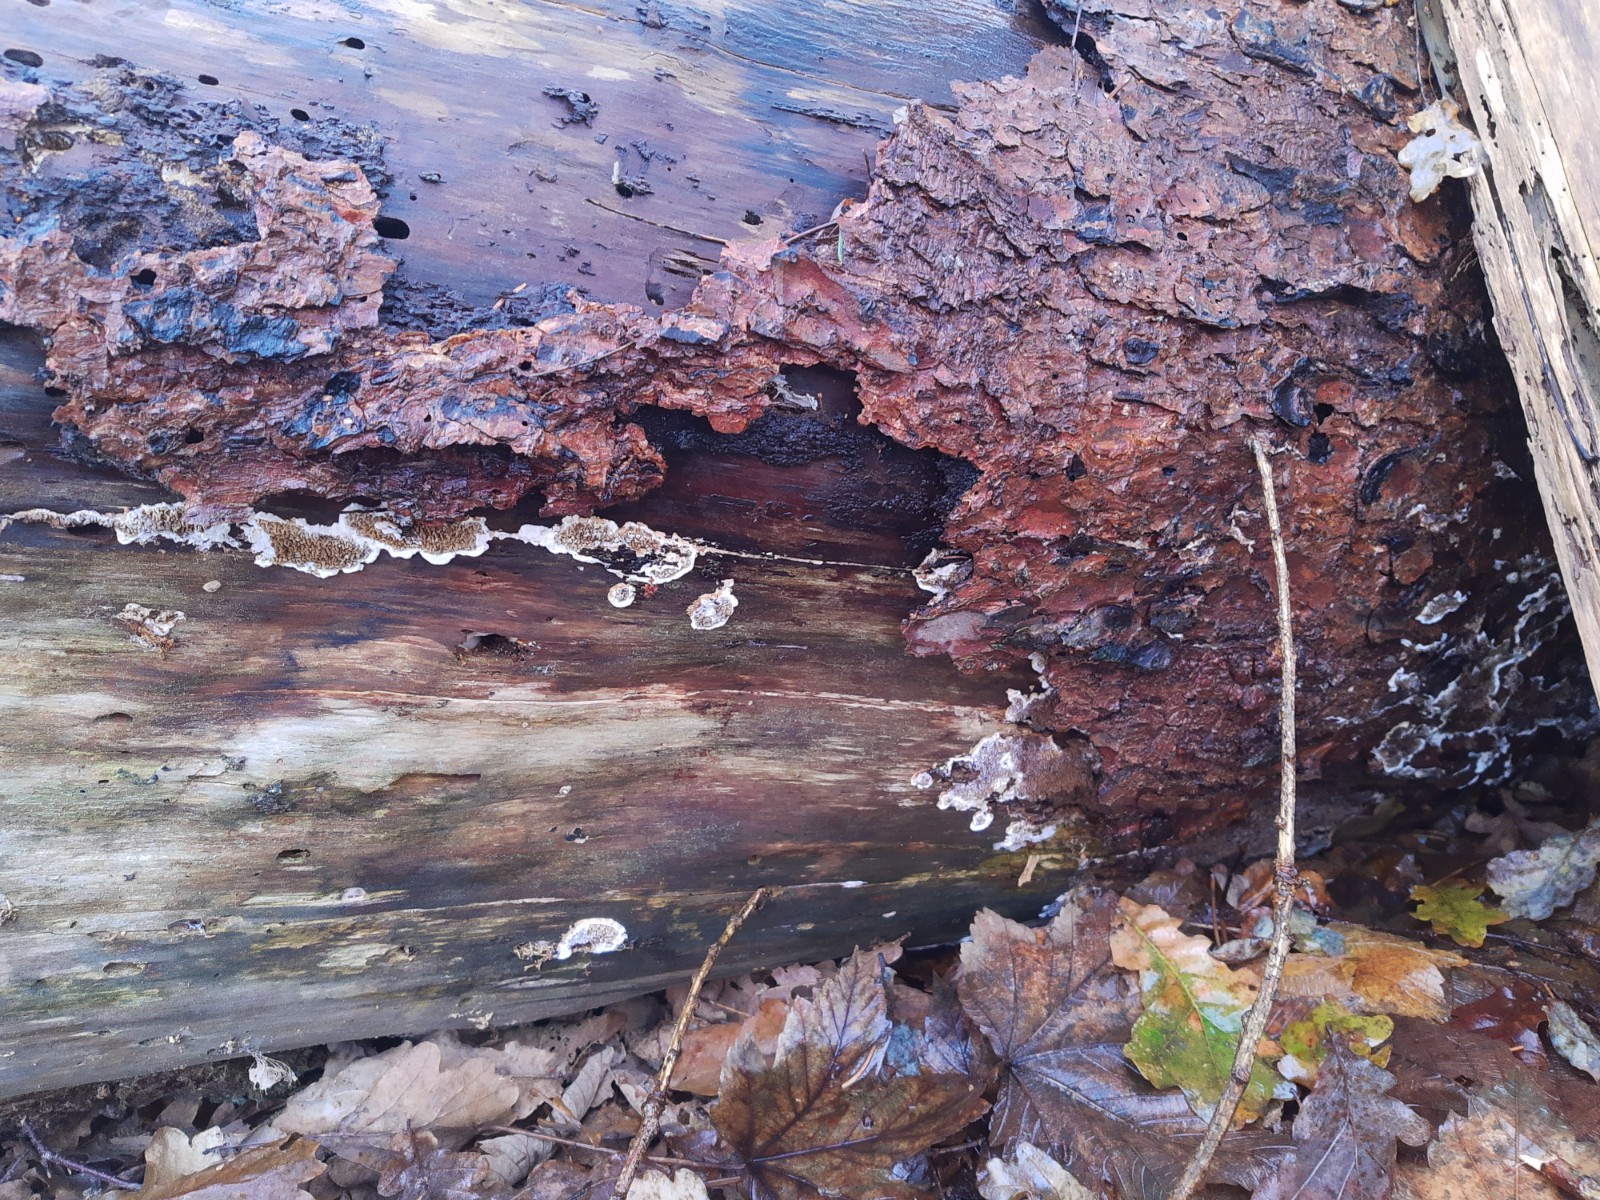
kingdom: Fungi
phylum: Basidiomycota
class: Agaricomycetes
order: Boletales
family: Serpulaceae
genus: Serpula
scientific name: Serpula himantioides
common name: tyndkødet hussvamp
